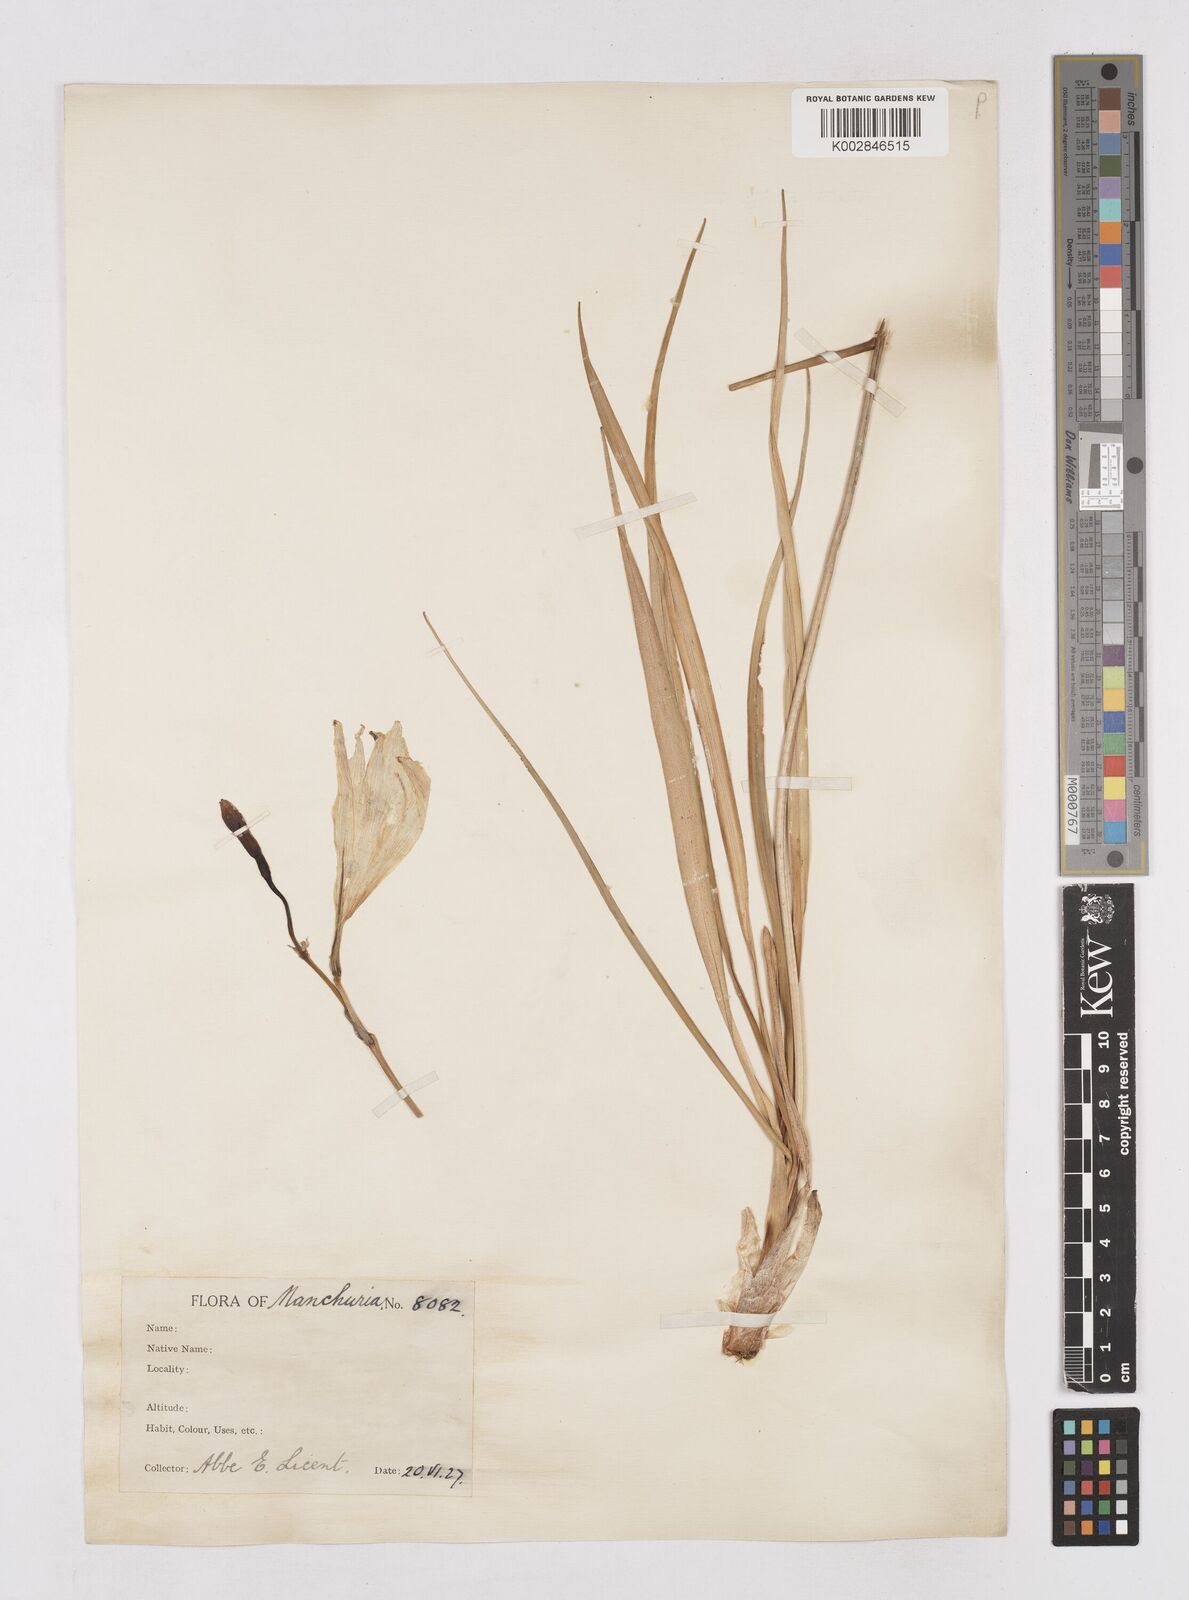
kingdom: Plantae
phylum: Tracheophyta
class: Liliopsida
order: Asparagales
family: Asphodelaceae
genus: Hemerocallis
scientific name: Hemerocallis minor
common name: Small daylily
